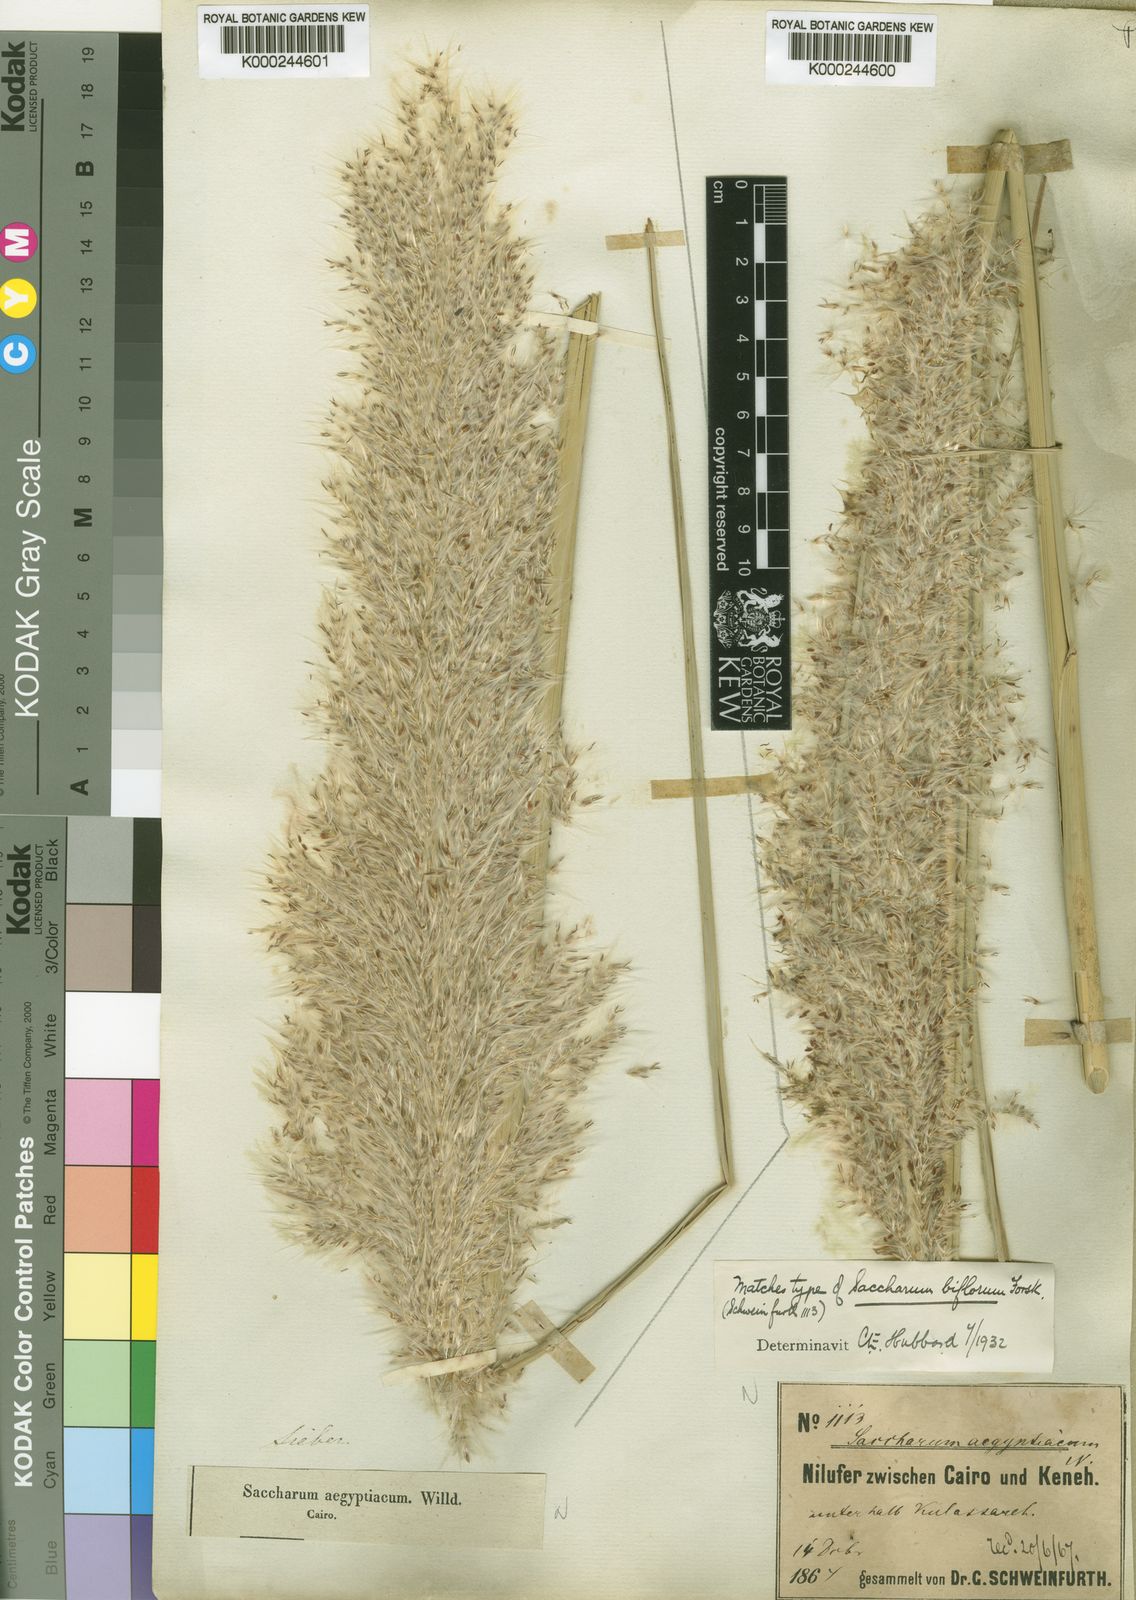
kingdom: Plantae
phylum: Tracheophyta
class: Liliopsida
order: Poales
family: Poaceae
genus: Saccharum
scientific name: Saccharum spontaneum
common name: Wild sugarcane
